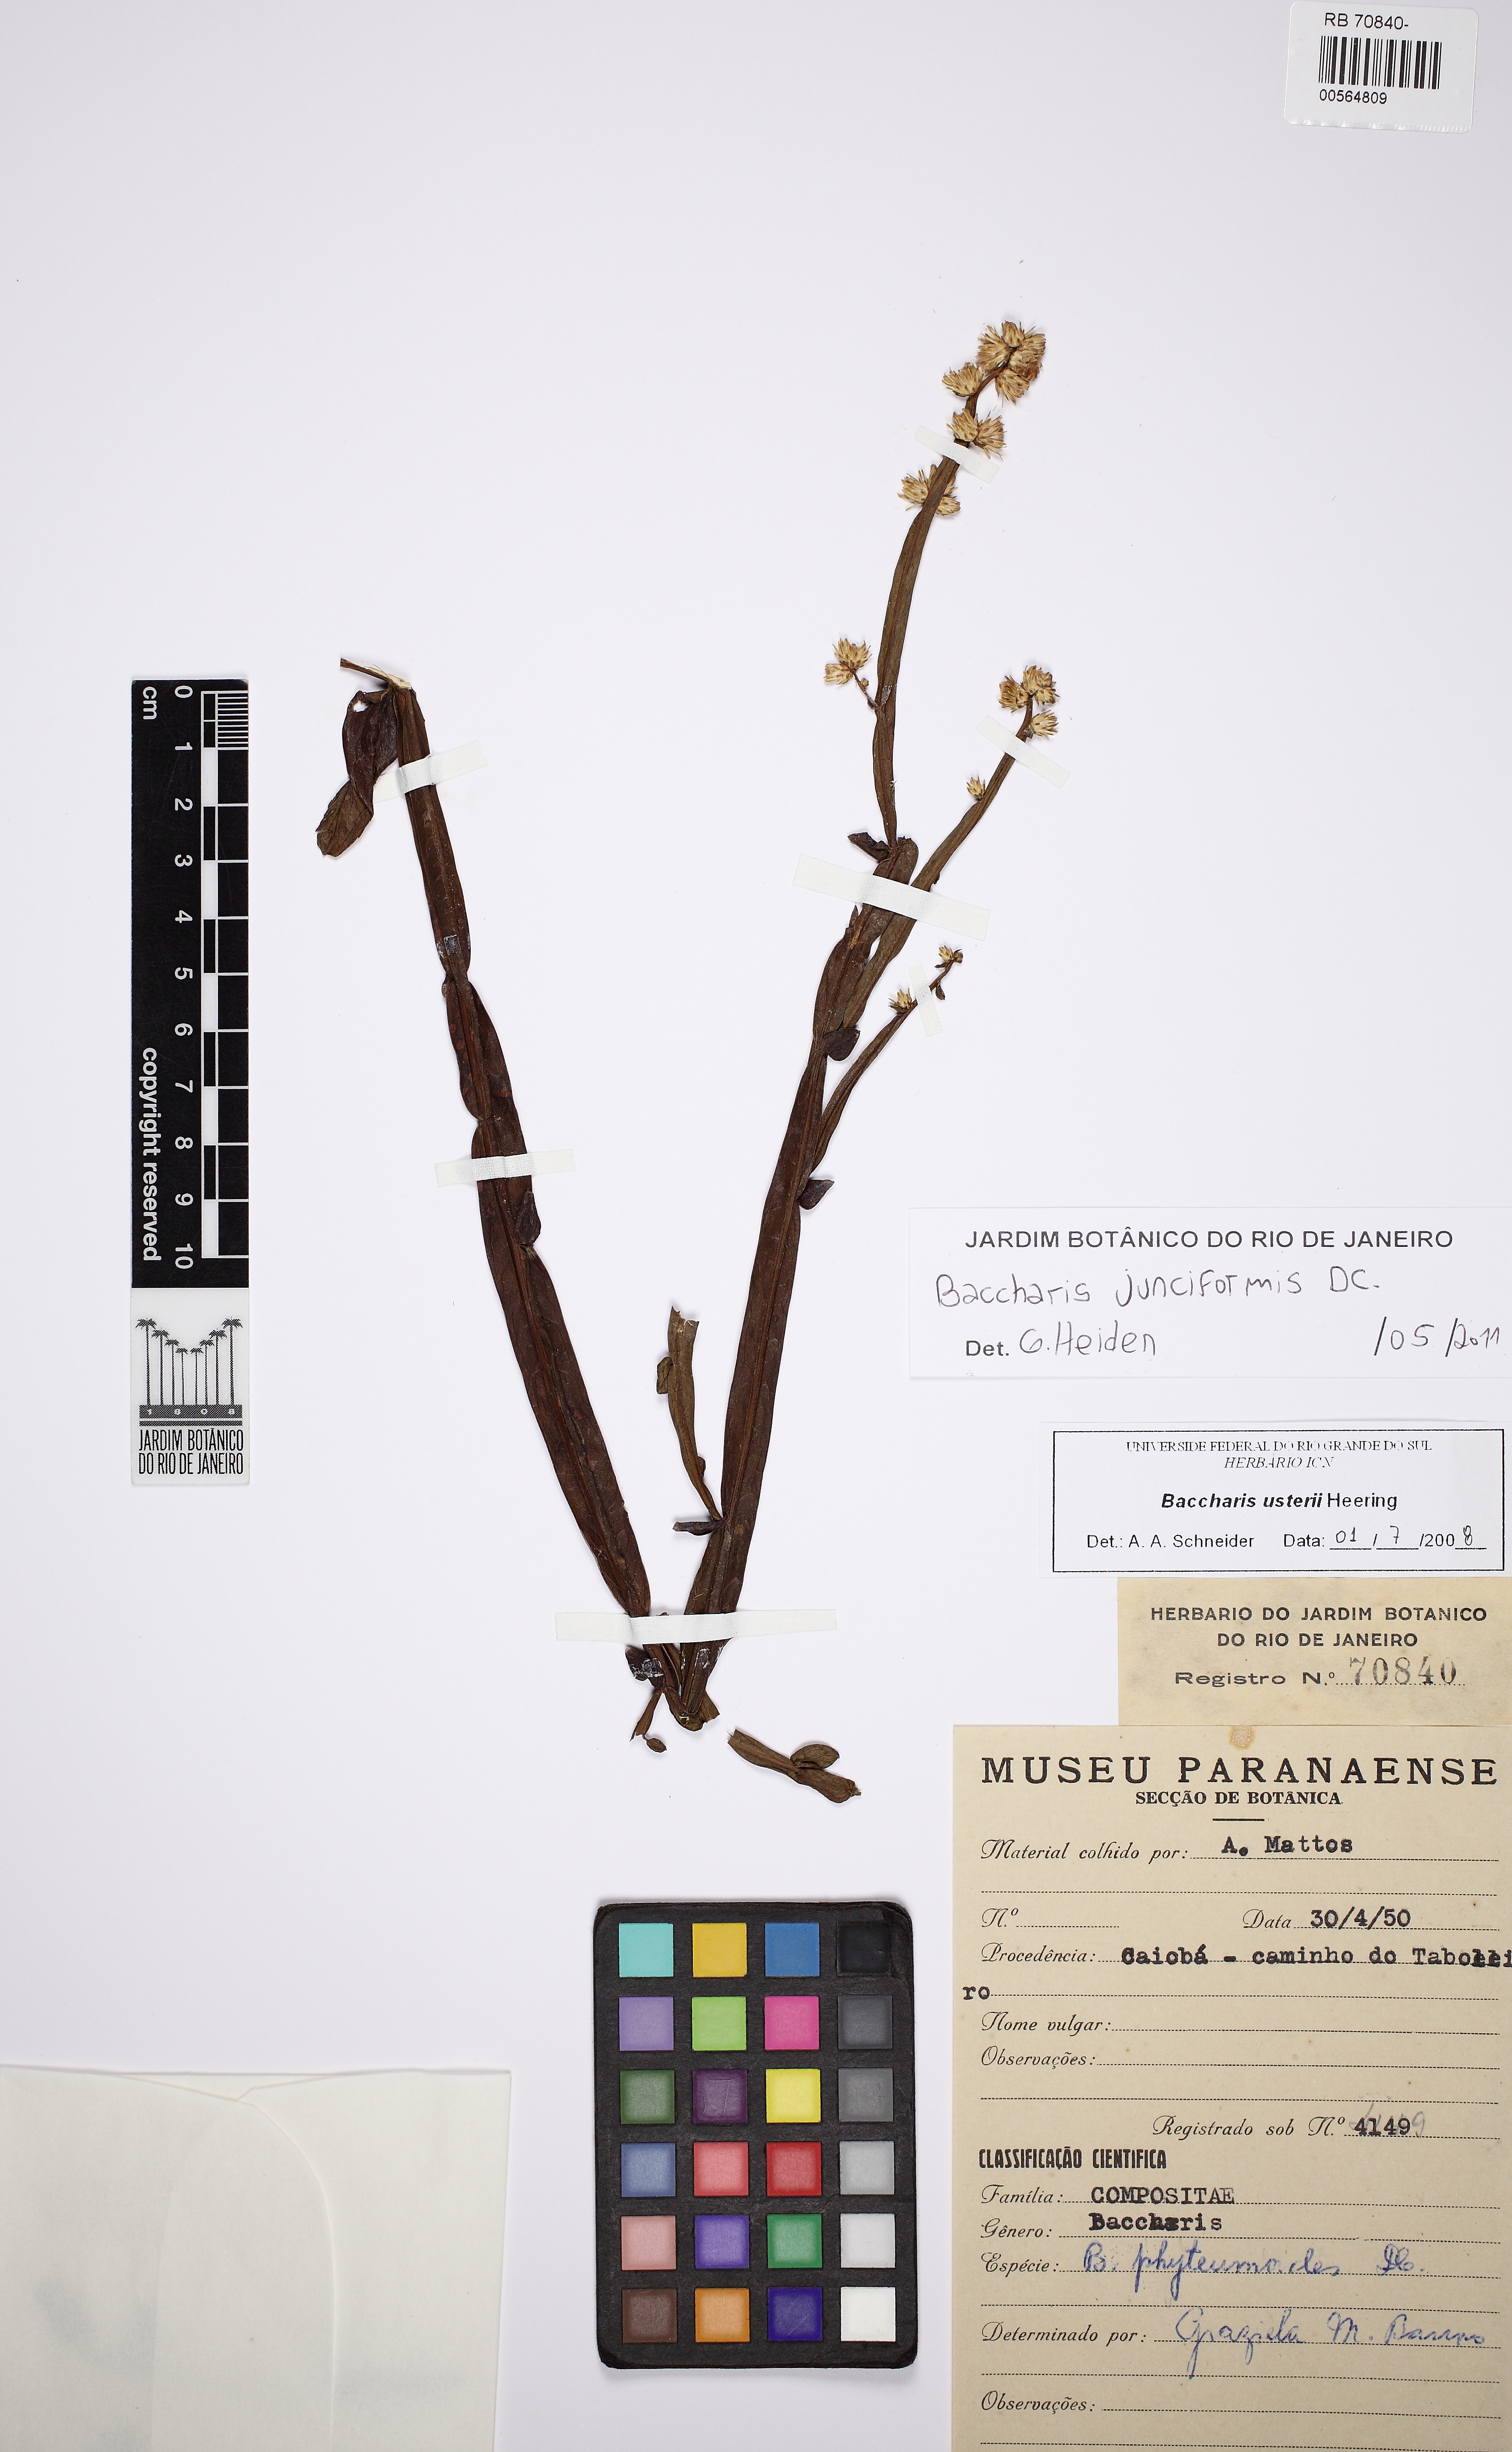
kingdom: Plantae
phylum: Tracheophyta
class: Magnoliopsida
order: Asterales
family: Asteraceae
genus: Baccharis
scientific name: Baccharis junciformis
